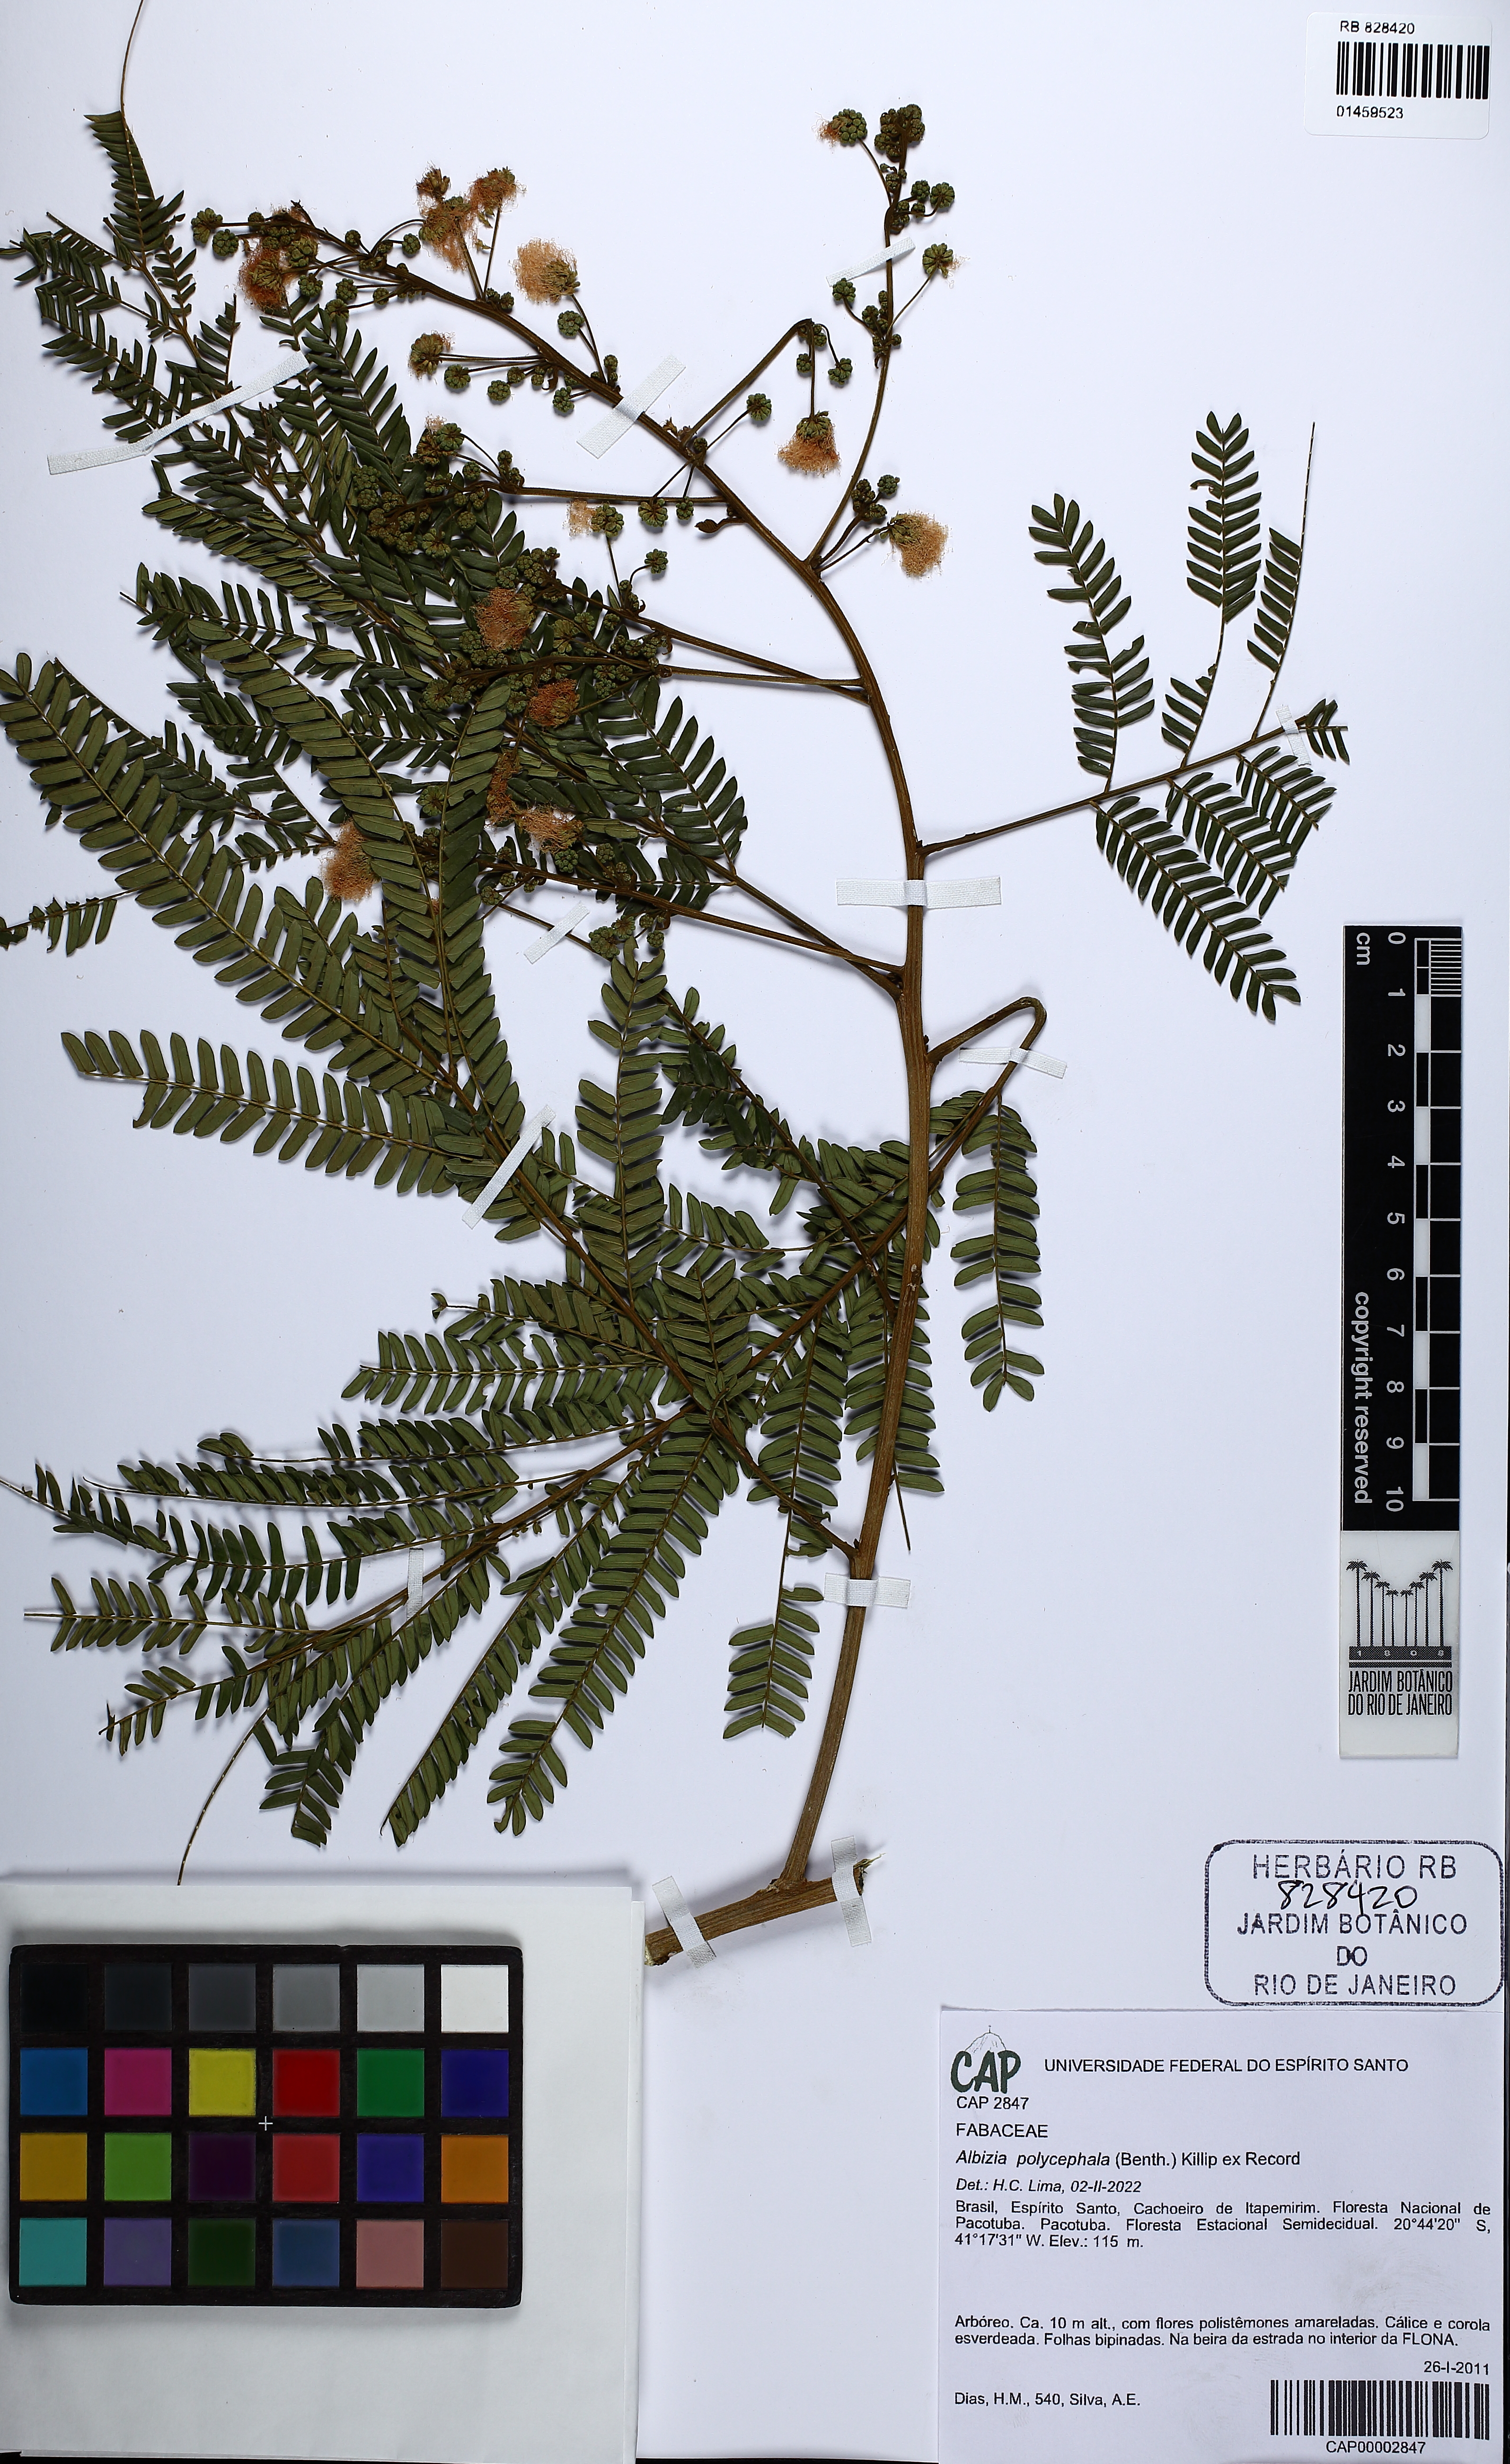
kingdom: Plantae
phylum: Tracheophyta
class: Magnoliopsida
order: Fabales
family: Fabaceae
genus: Albizia
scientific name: Albizia polycephala
